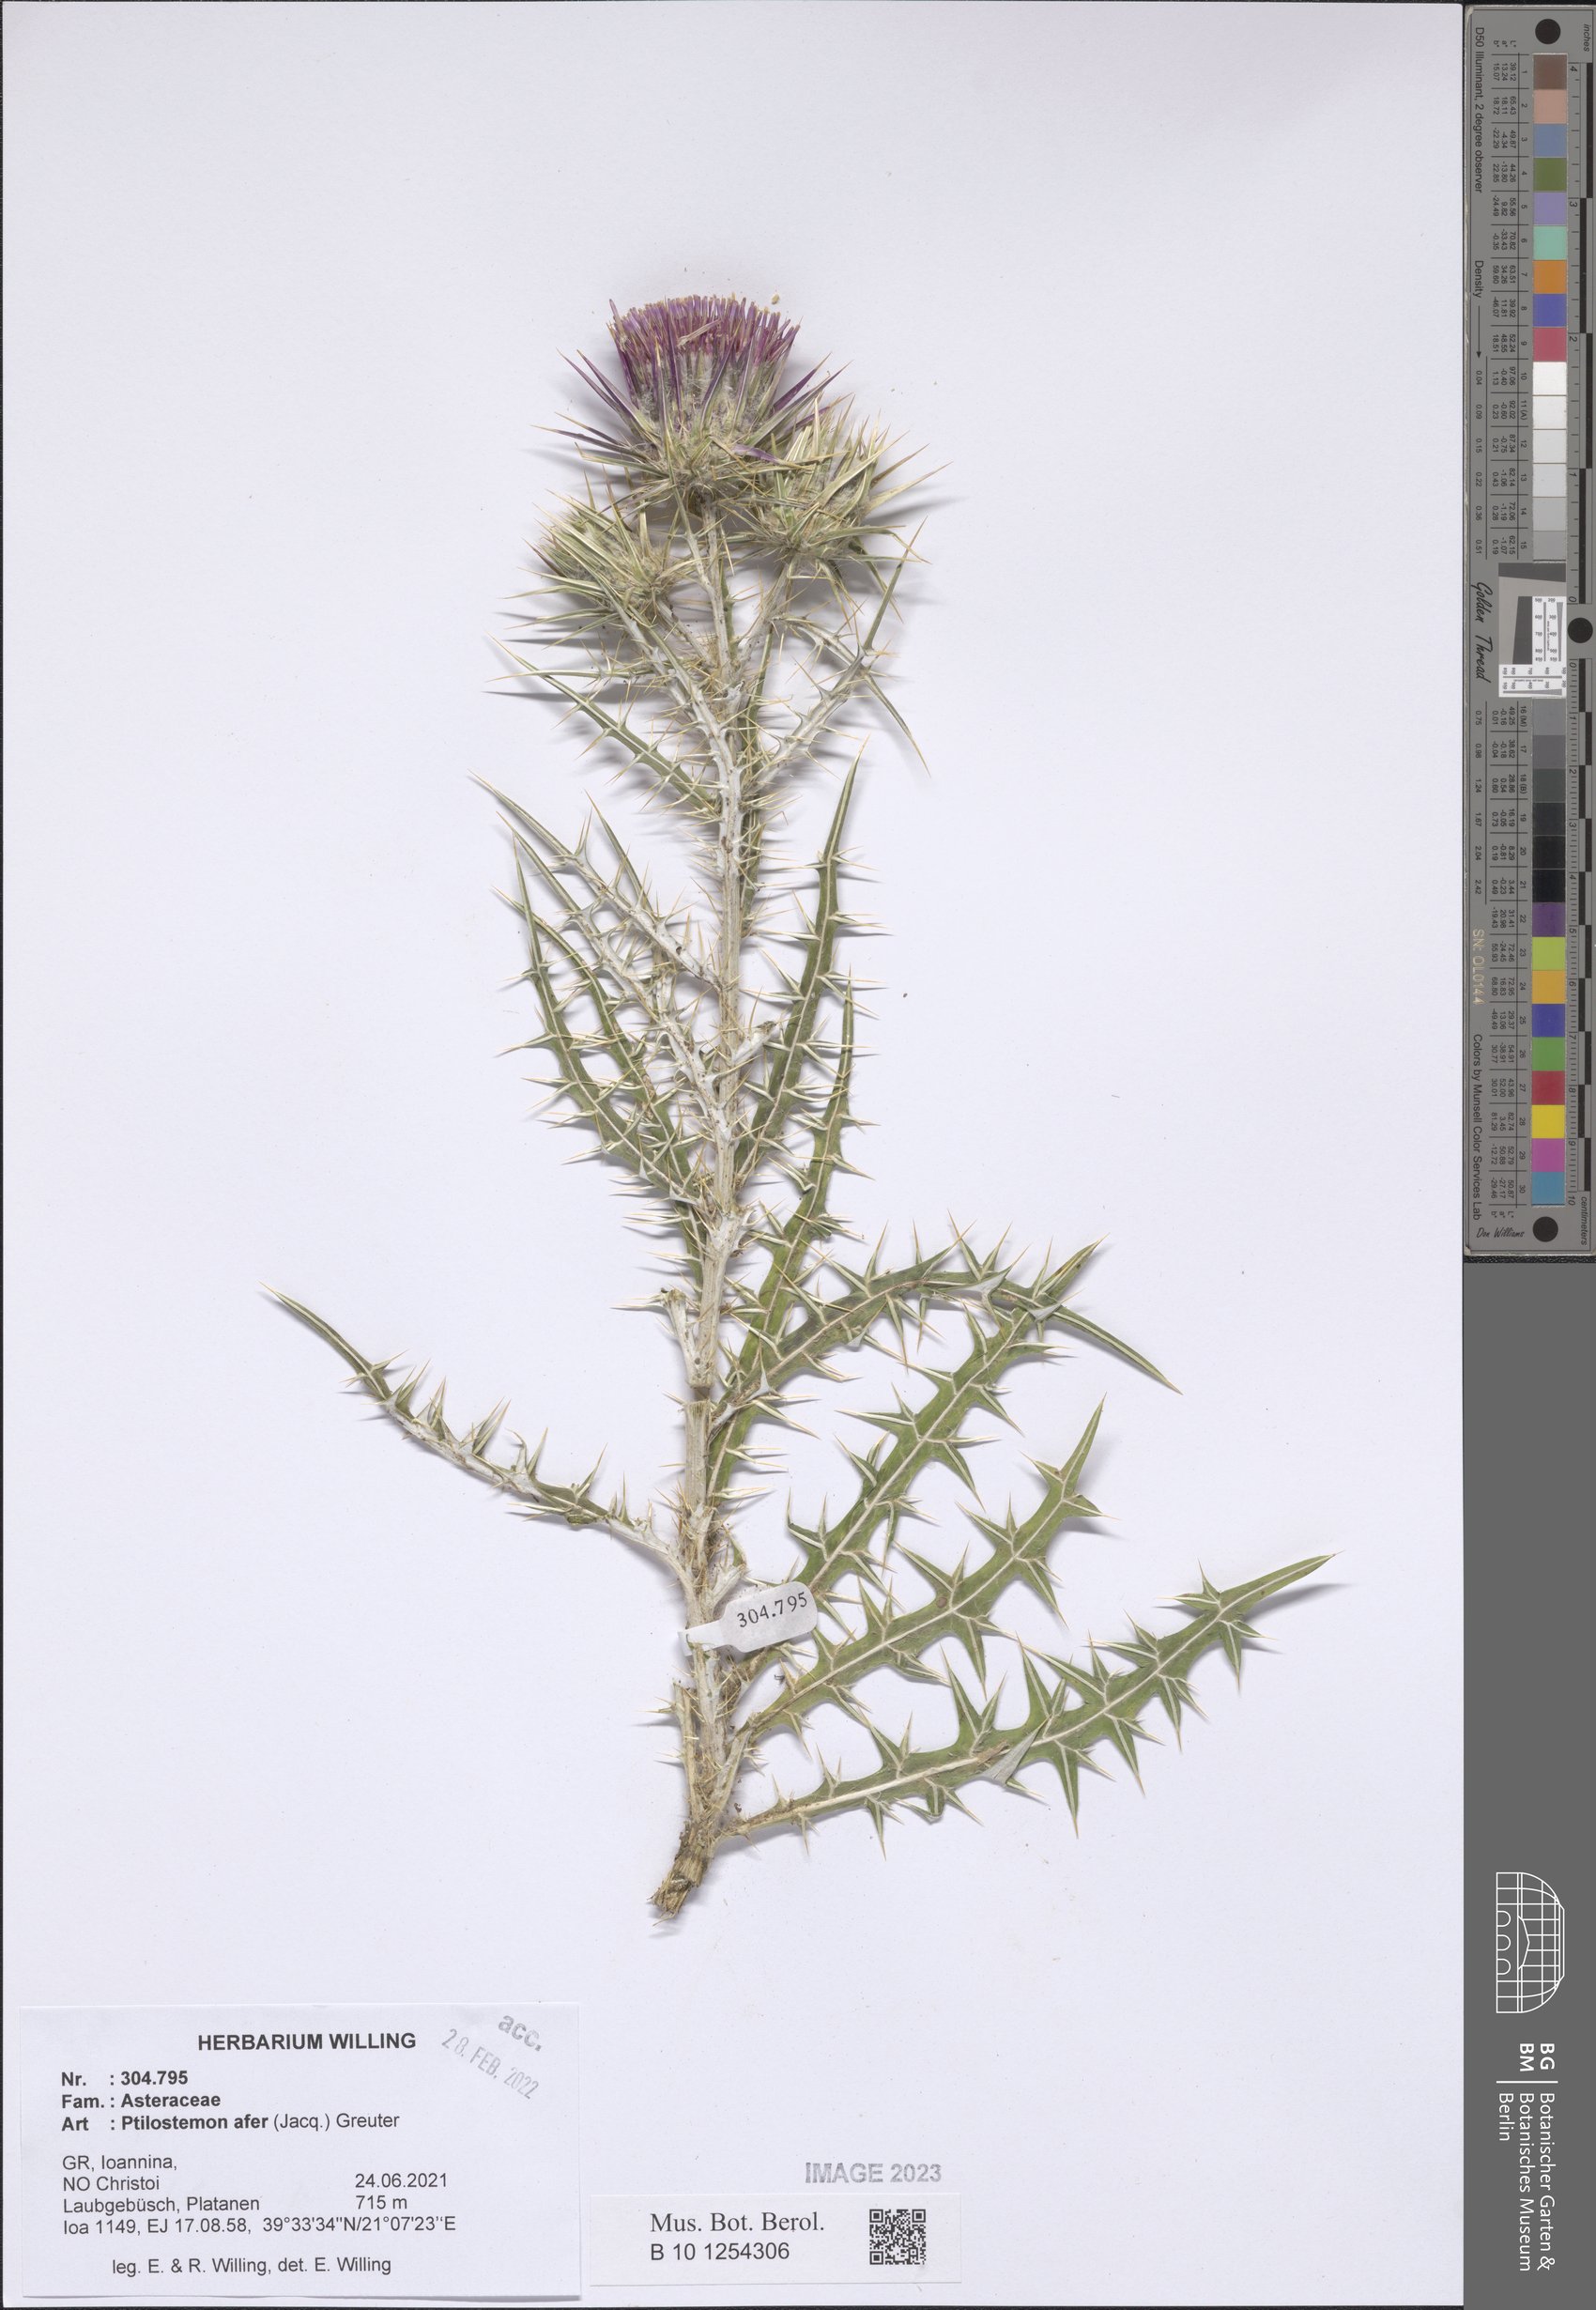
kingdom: Plantae
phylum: Tracheophyta
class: Magnoliopsida
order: Asterales
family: Asteraceae
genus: Ptilostemon
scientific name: Ptilostemon afer
